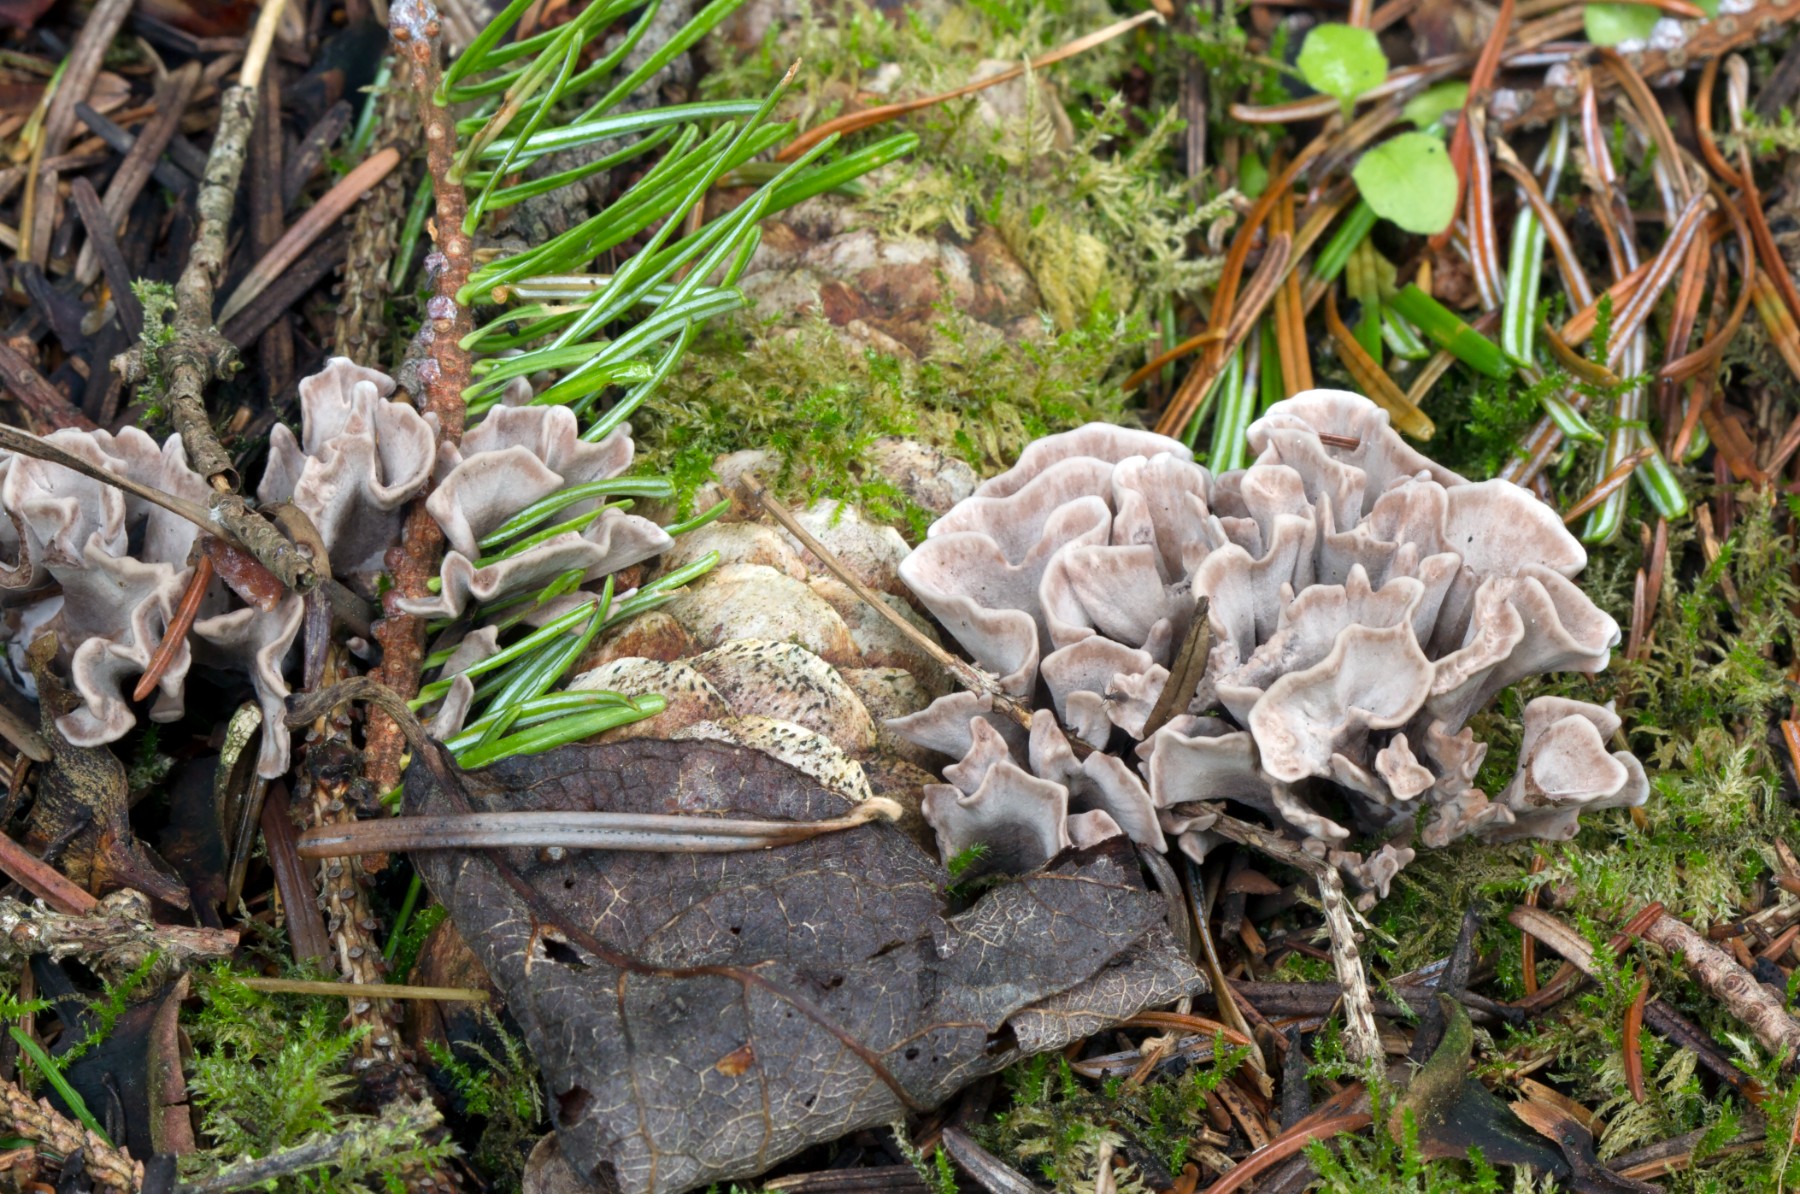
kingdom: Fungi
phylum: Basidiomycota
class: Agaricomycetes
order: Thelephorales
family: Thelephoraceae
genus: Thelephora
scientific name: Thelephora palmata
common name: grenet frynsesvamp
